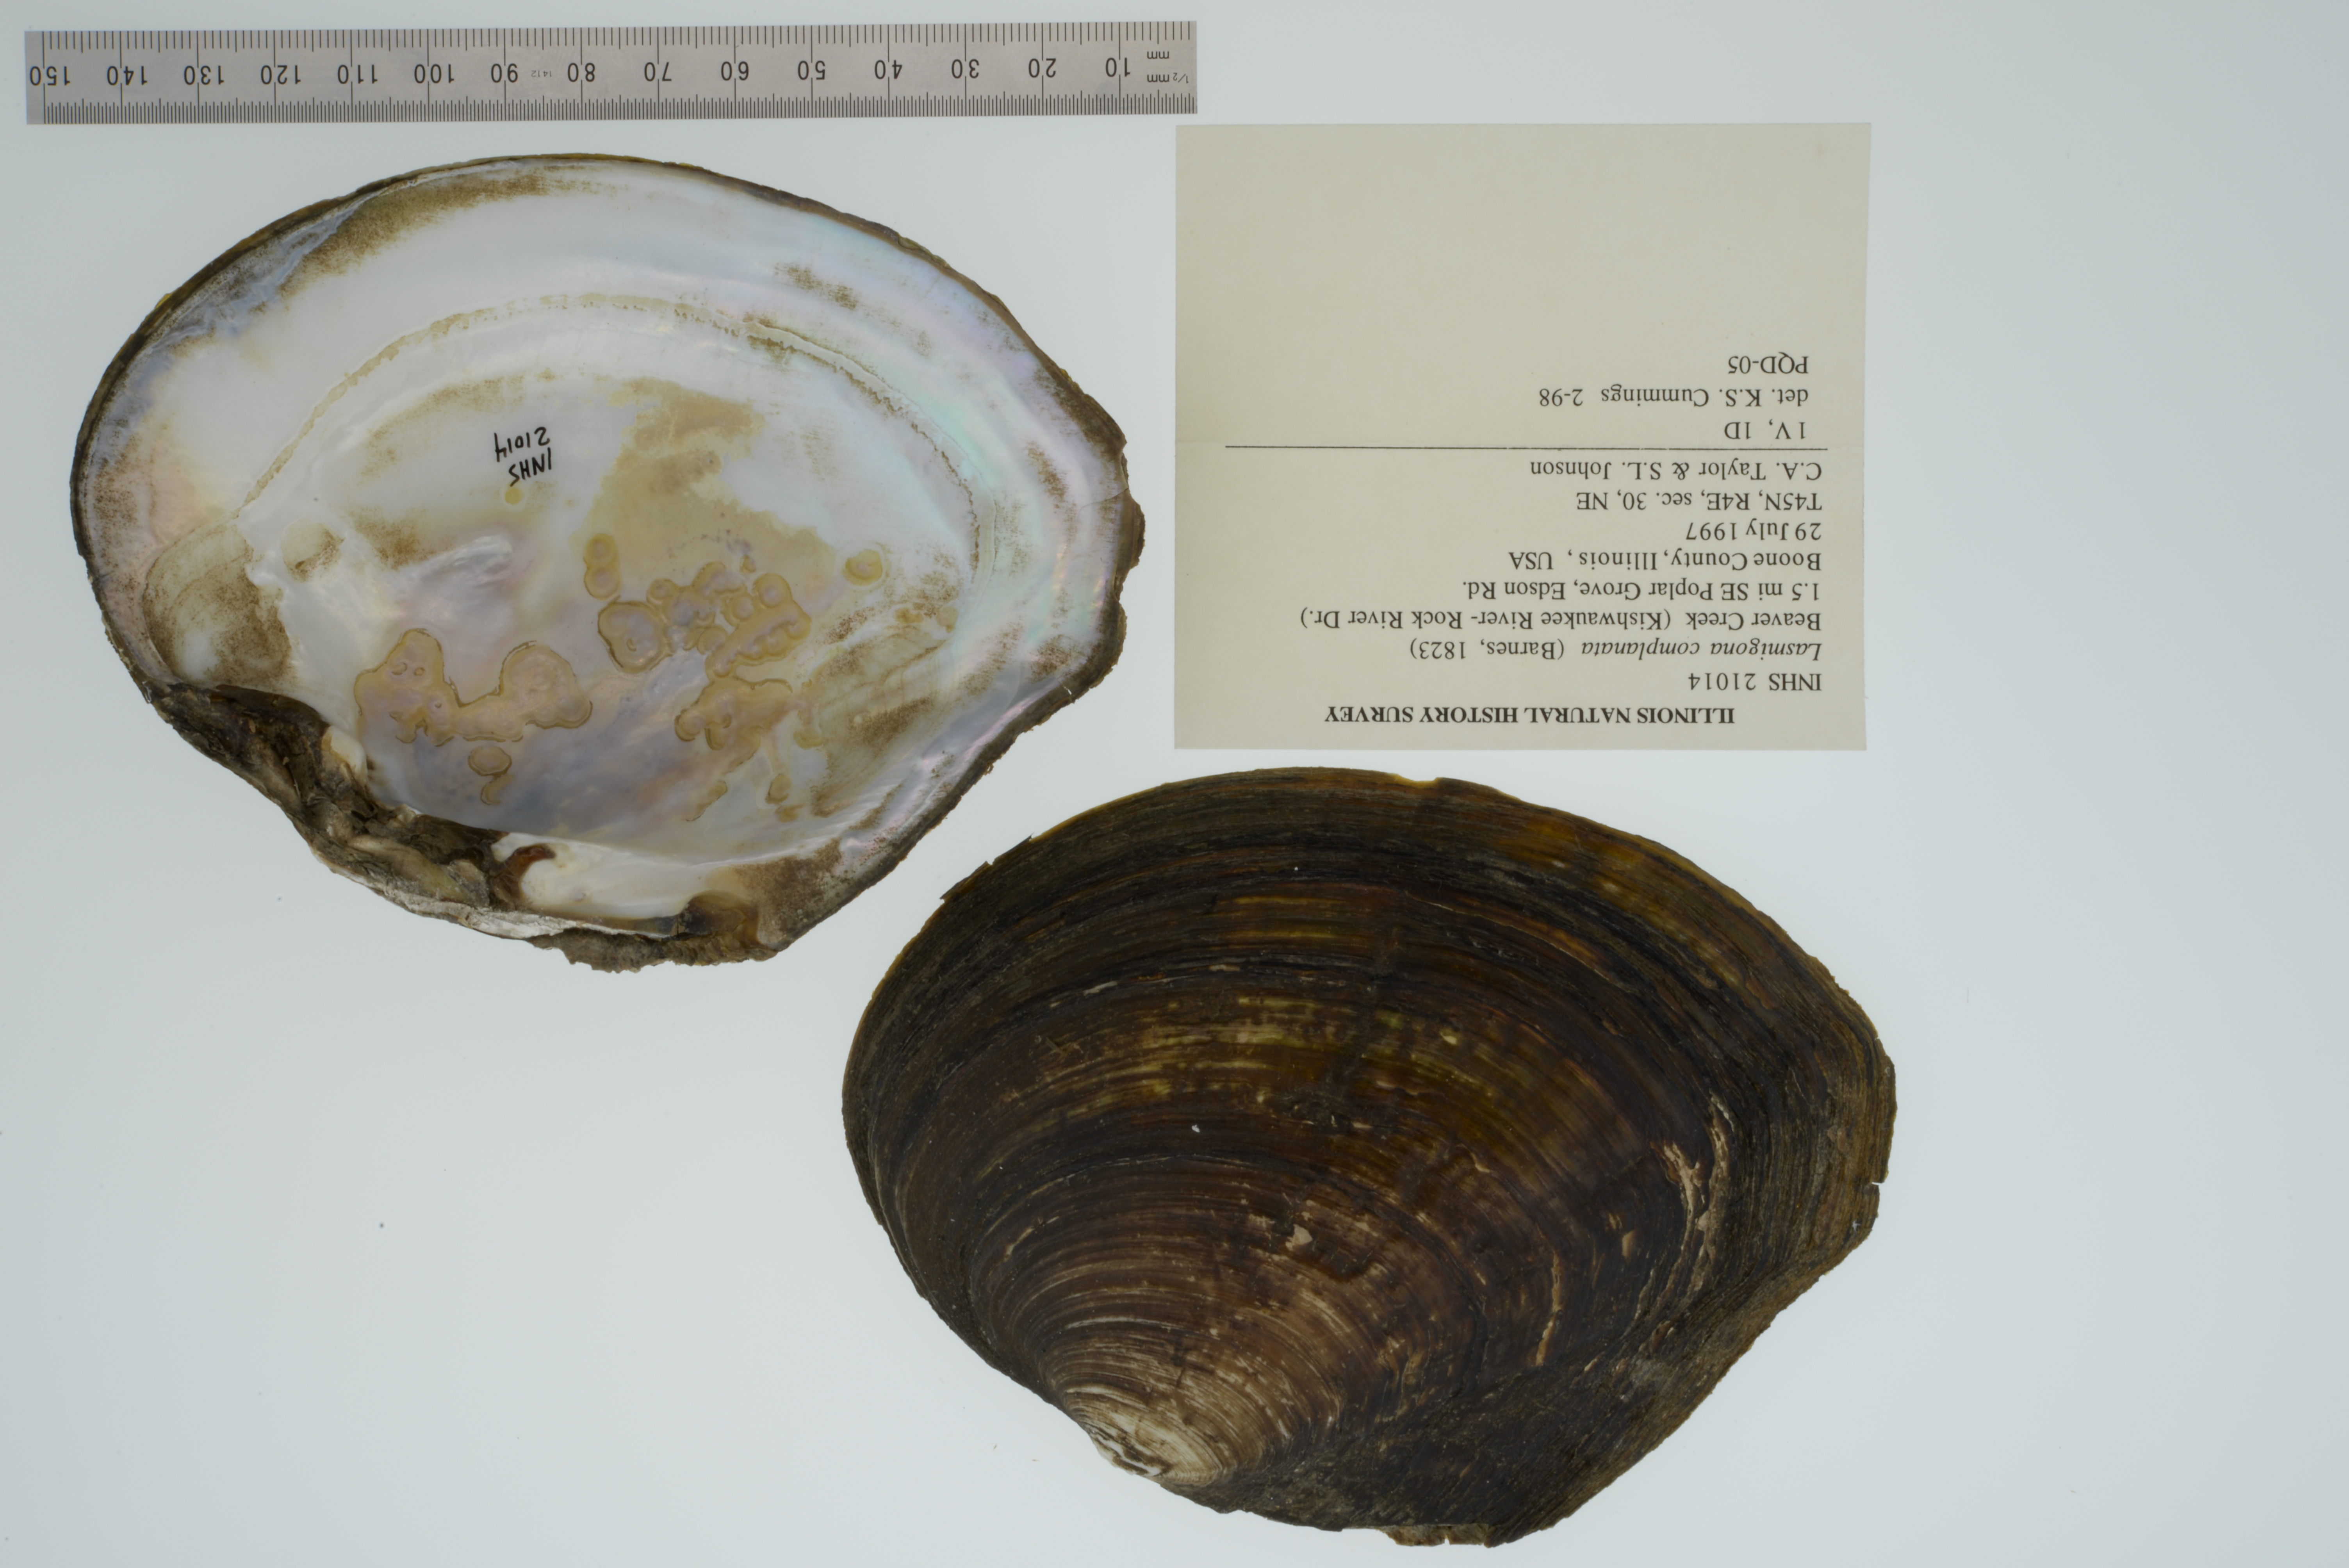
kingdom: Animalia
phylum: Mollusca
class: Bivalvia
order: Unionida
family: Unionidae
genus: Lasmigona
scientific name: Lasmigona complanata
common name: White heelsplitter
